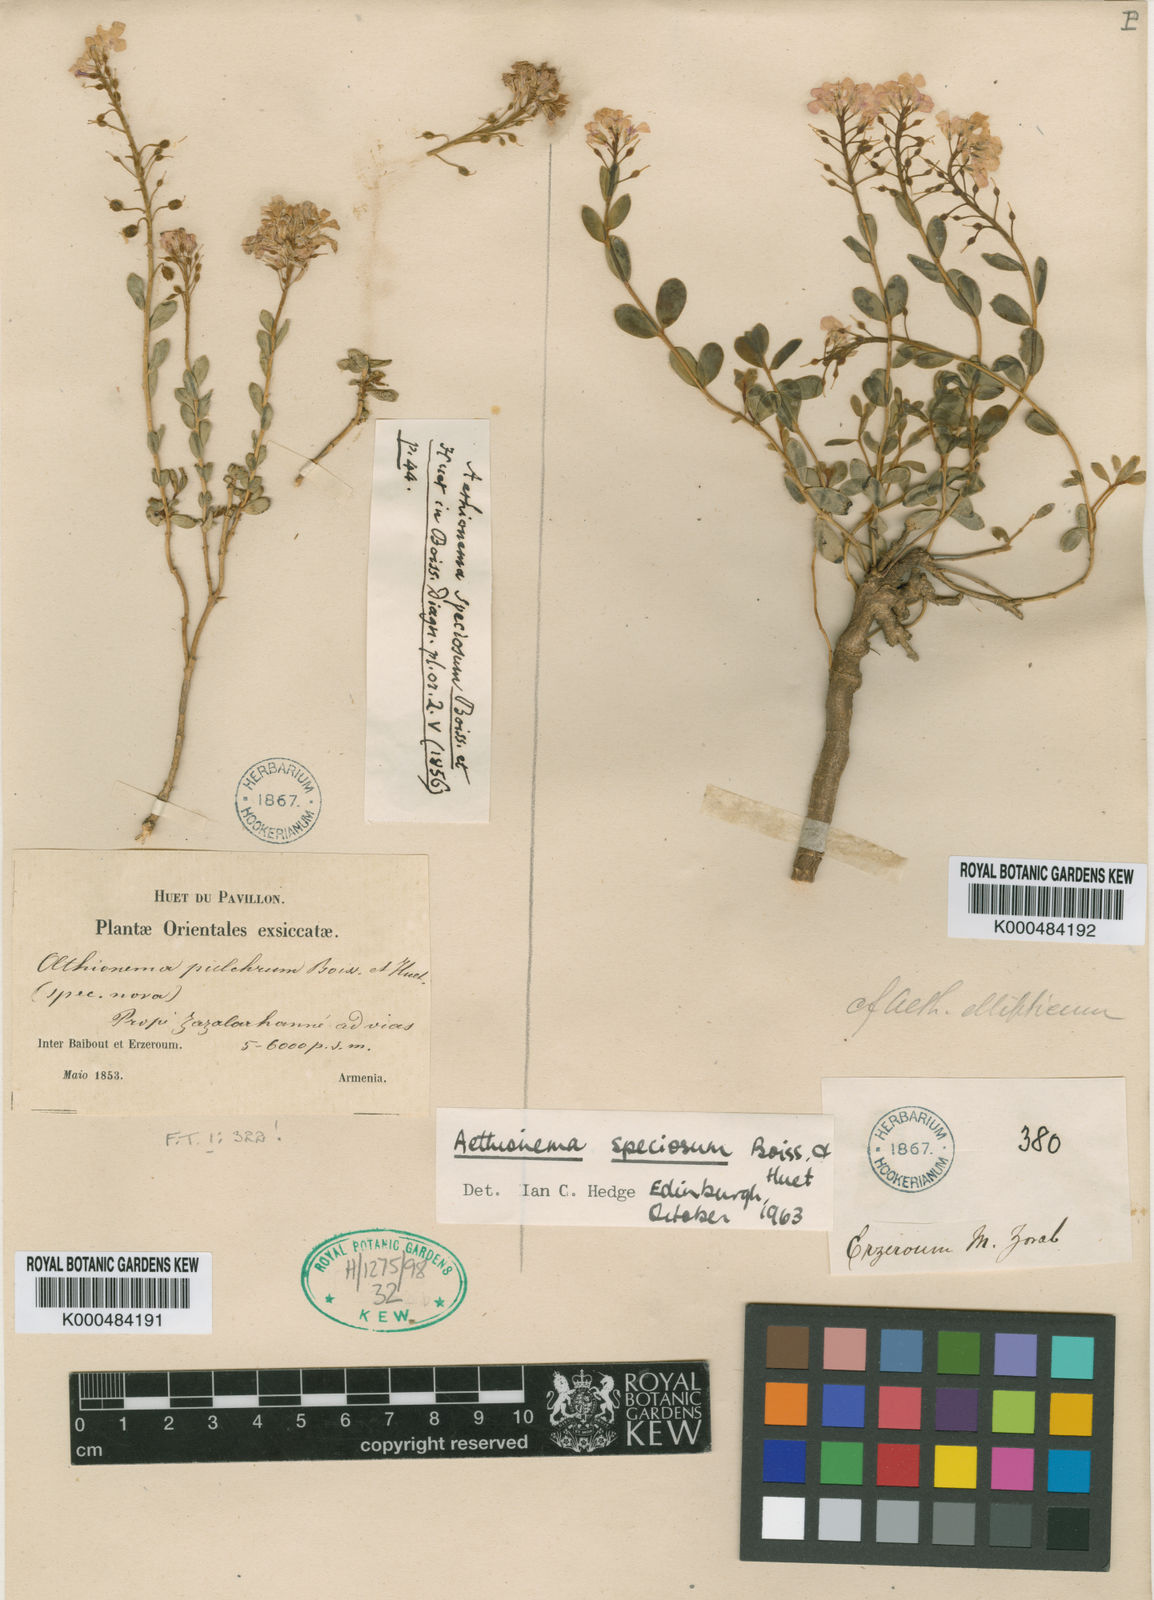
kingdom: Plantae
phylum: Tracheophyta
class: Magnoliopsida
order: Brassicales
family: Brassicaceae
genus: Aethionema
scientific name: Aethionema speciosum
